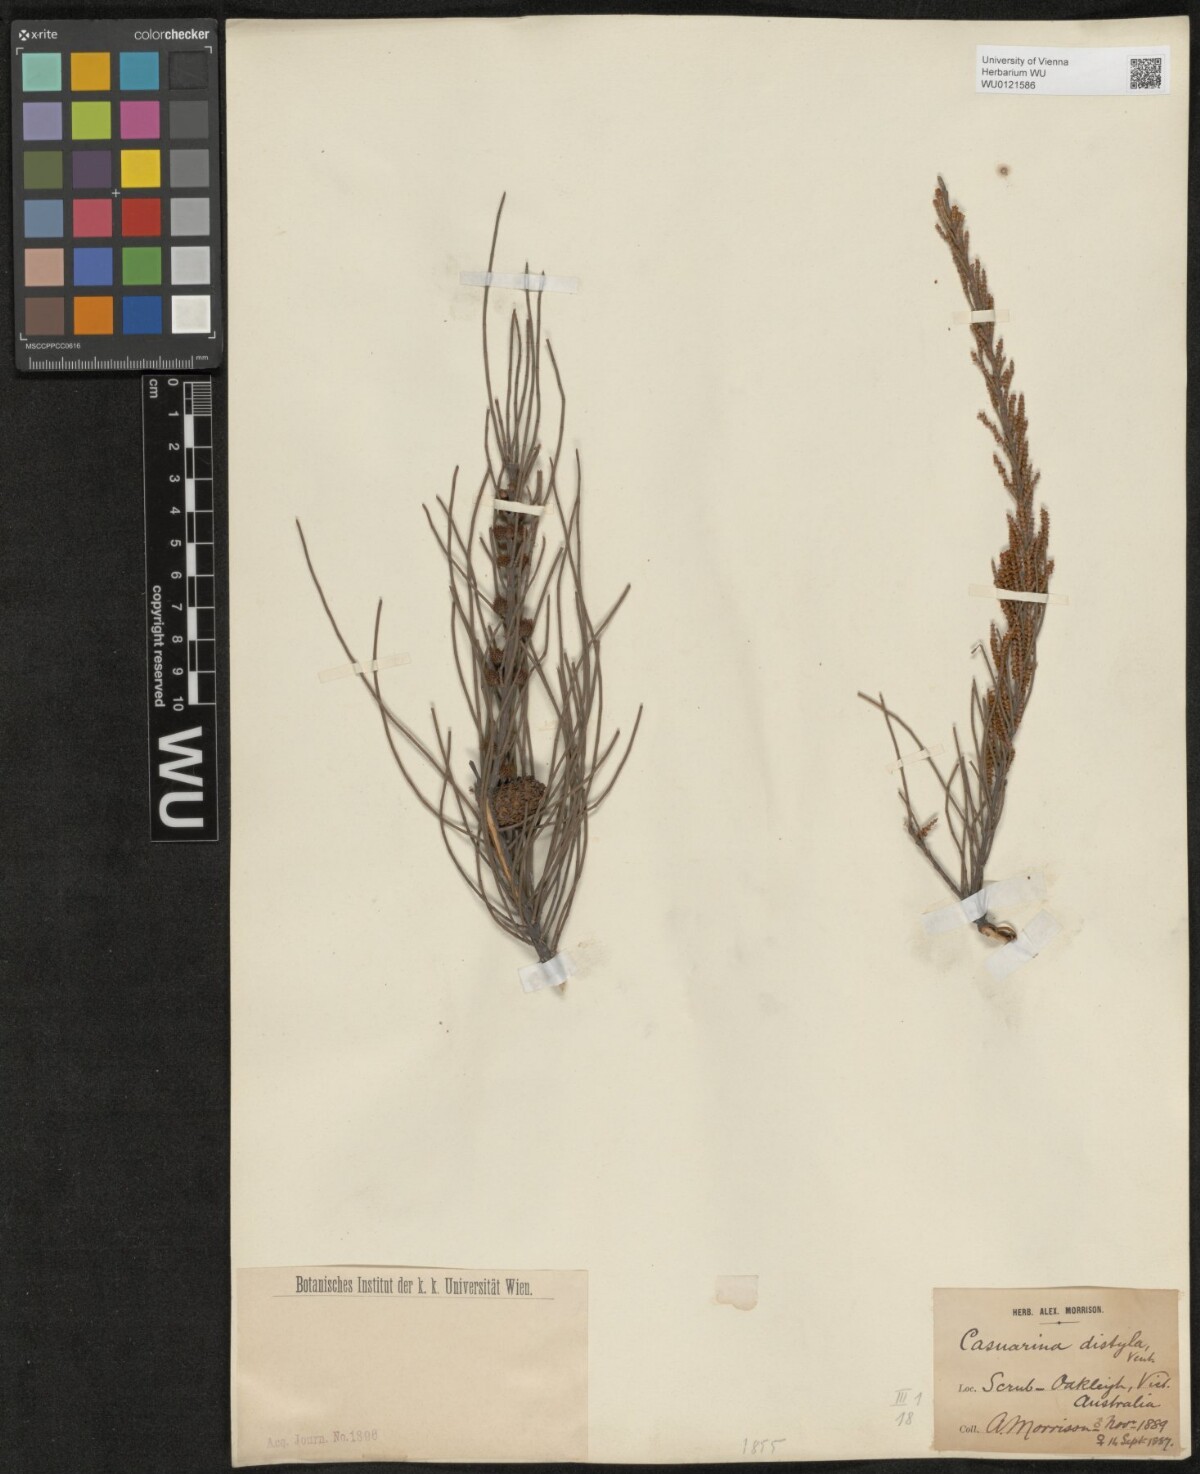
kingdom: Plantae
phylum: Tracheophyta
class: Magnoliopsida
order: Fagales
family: Casuarinaceae
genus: Allocasuarina
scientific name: Allocasuarina distyla
